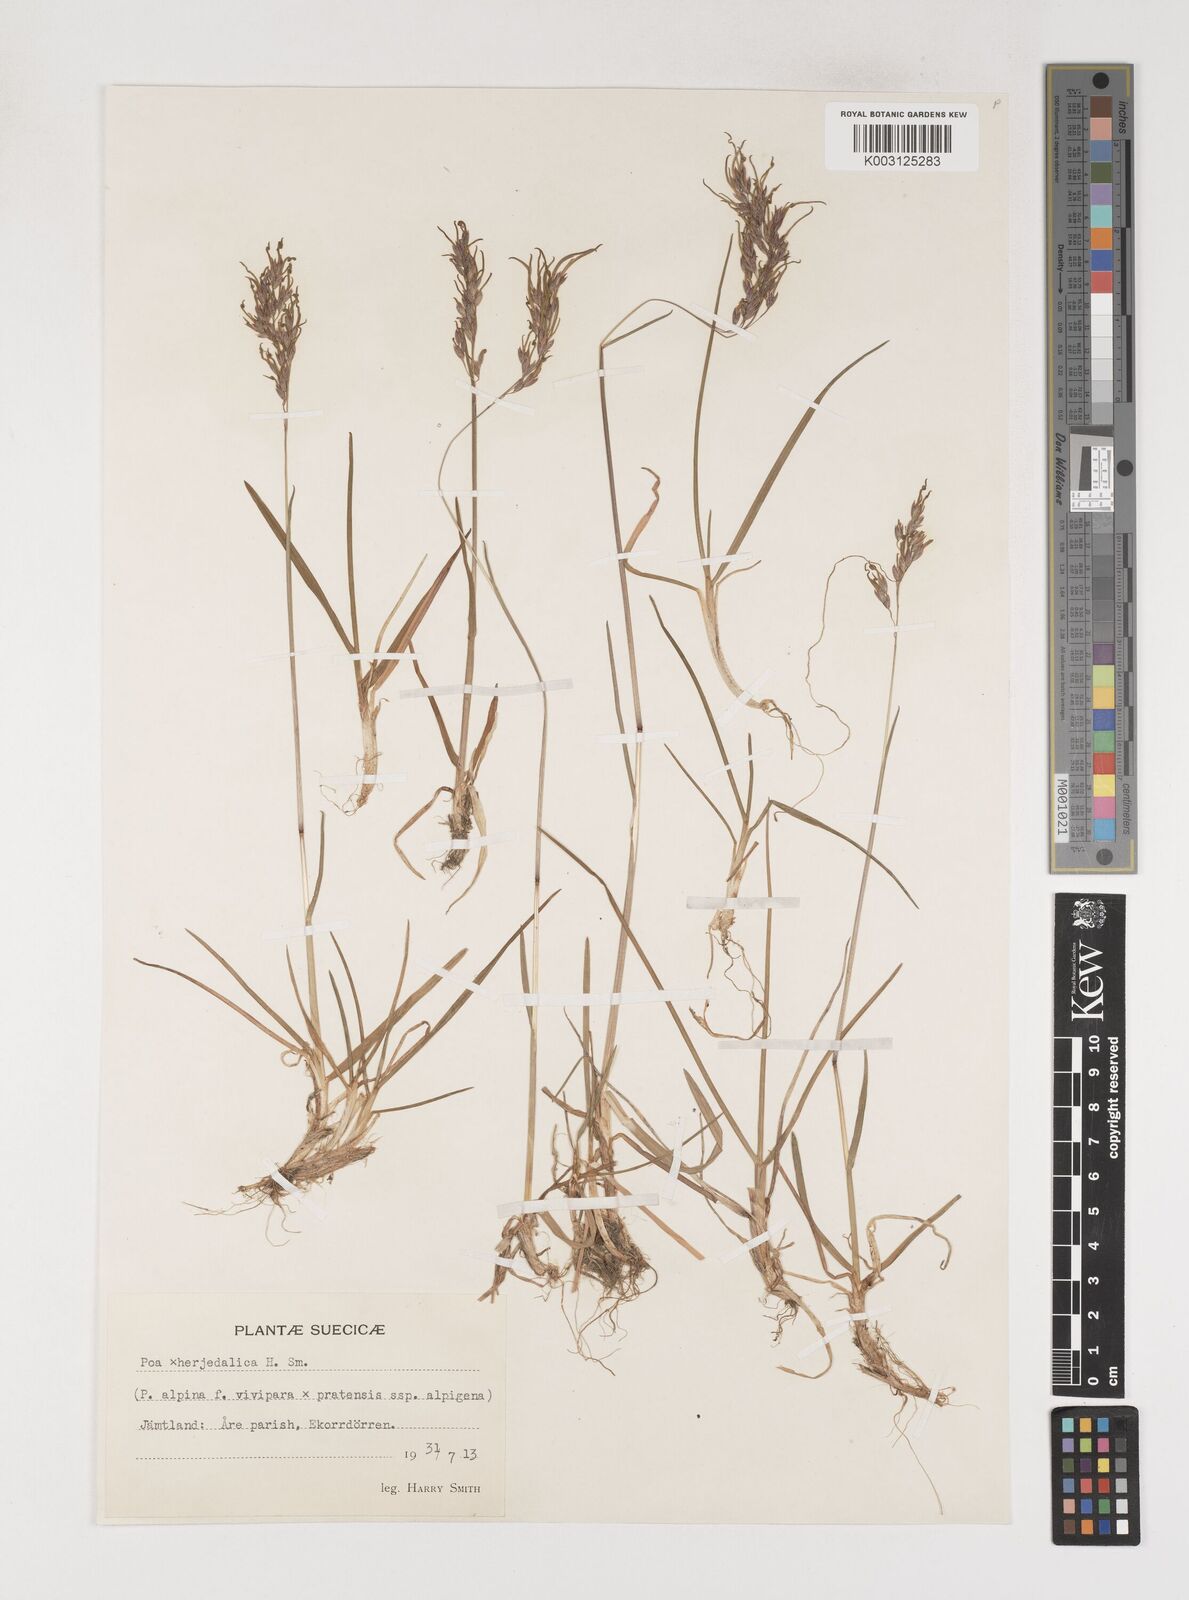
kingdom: Plantae
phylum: Tracheophyta
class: Liliopsida
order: Poales
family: Poaceae
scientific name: Poaceae
